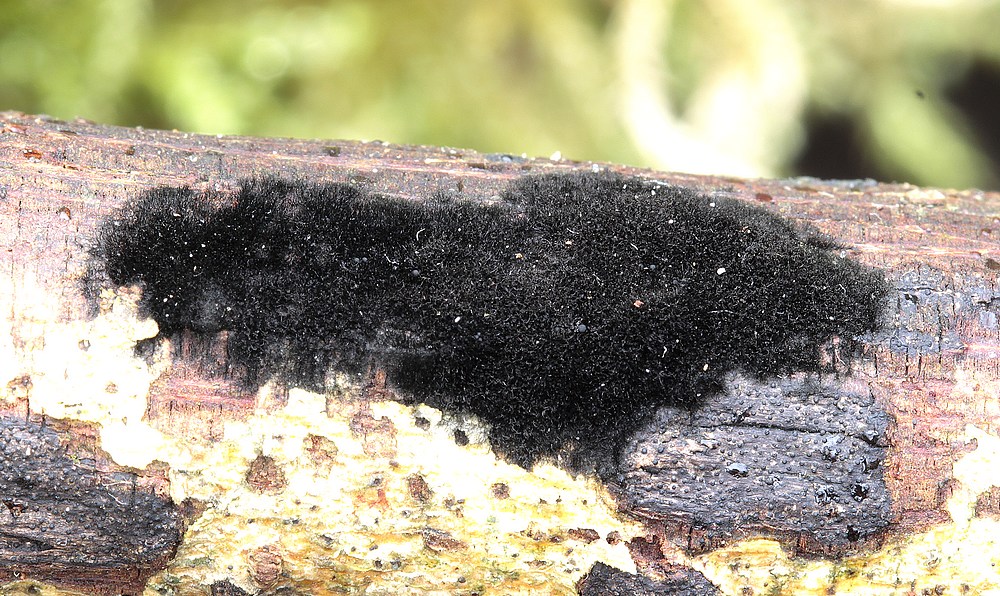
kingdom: Fungi
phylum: Ascomycota
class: Sordariomycetes
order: Coronophorales
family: Chaetosphaerellaceae
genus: Chaetosphaerella
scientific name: Chaetosphaerella phaeostroma
